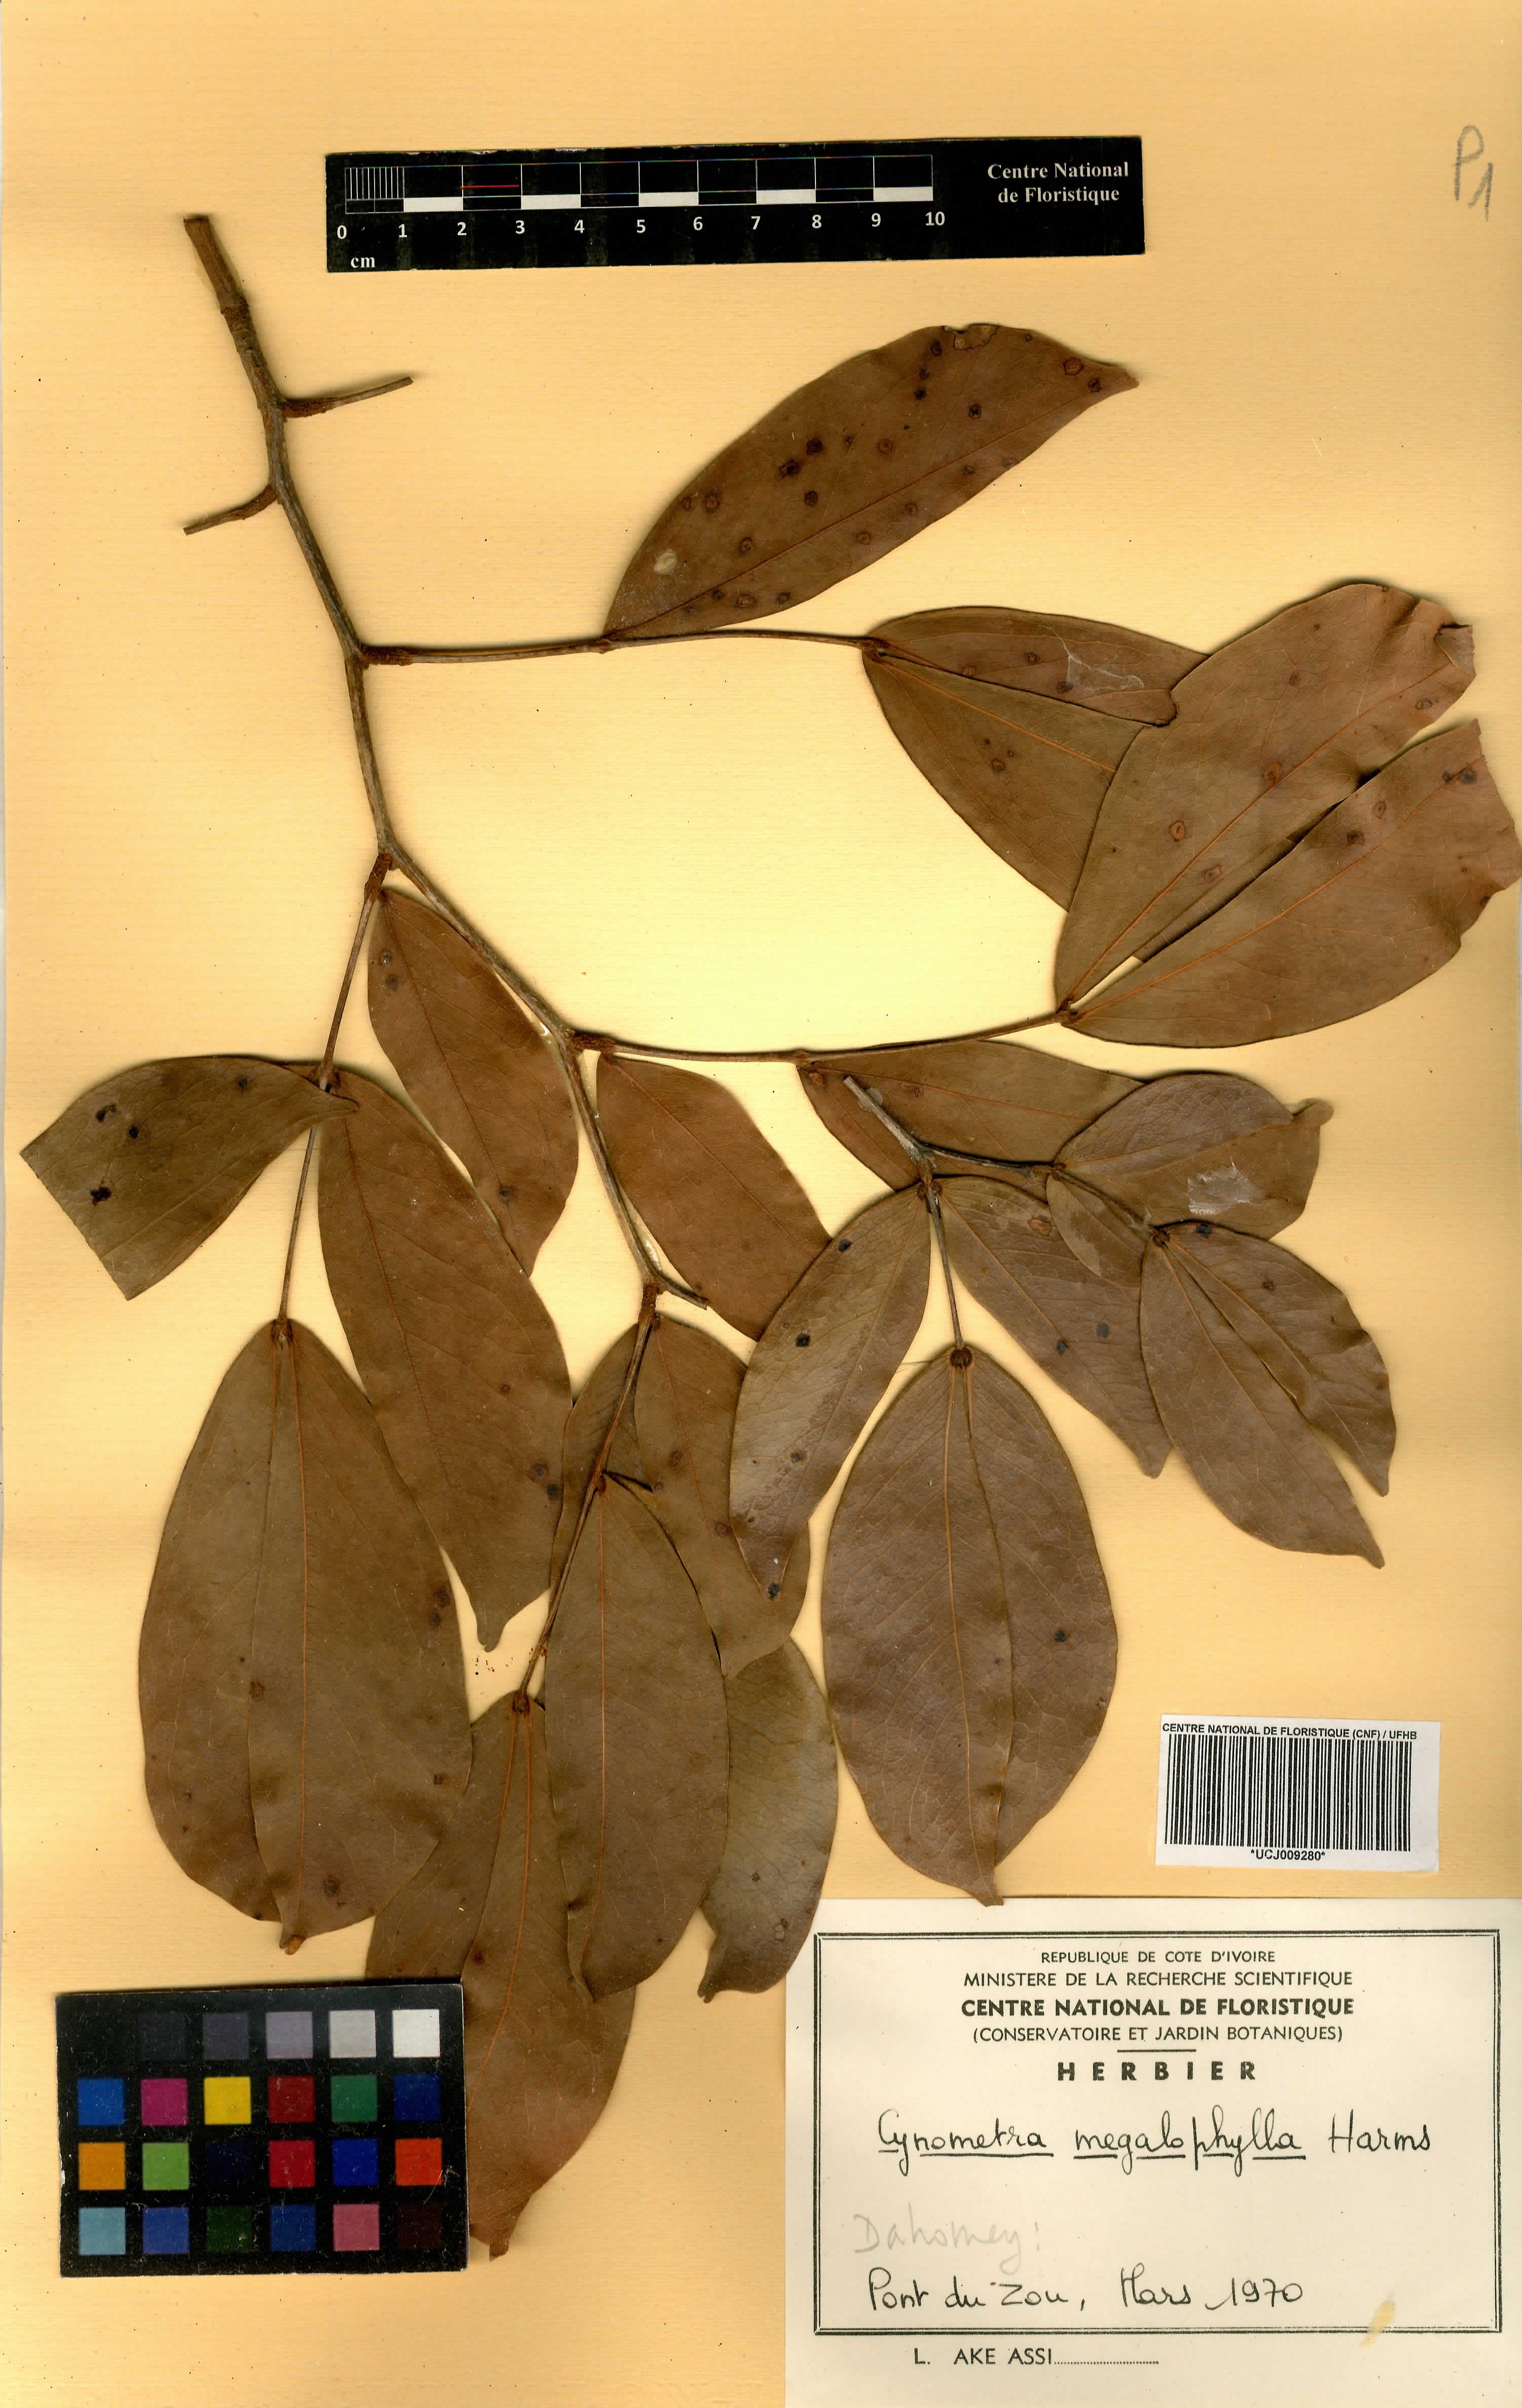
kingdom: Plantae
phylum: Tracheophyta
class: Magnoliopsida
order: Fabales
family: Fabaceae
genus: Cynometra
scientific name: Cynometra megalophylla
